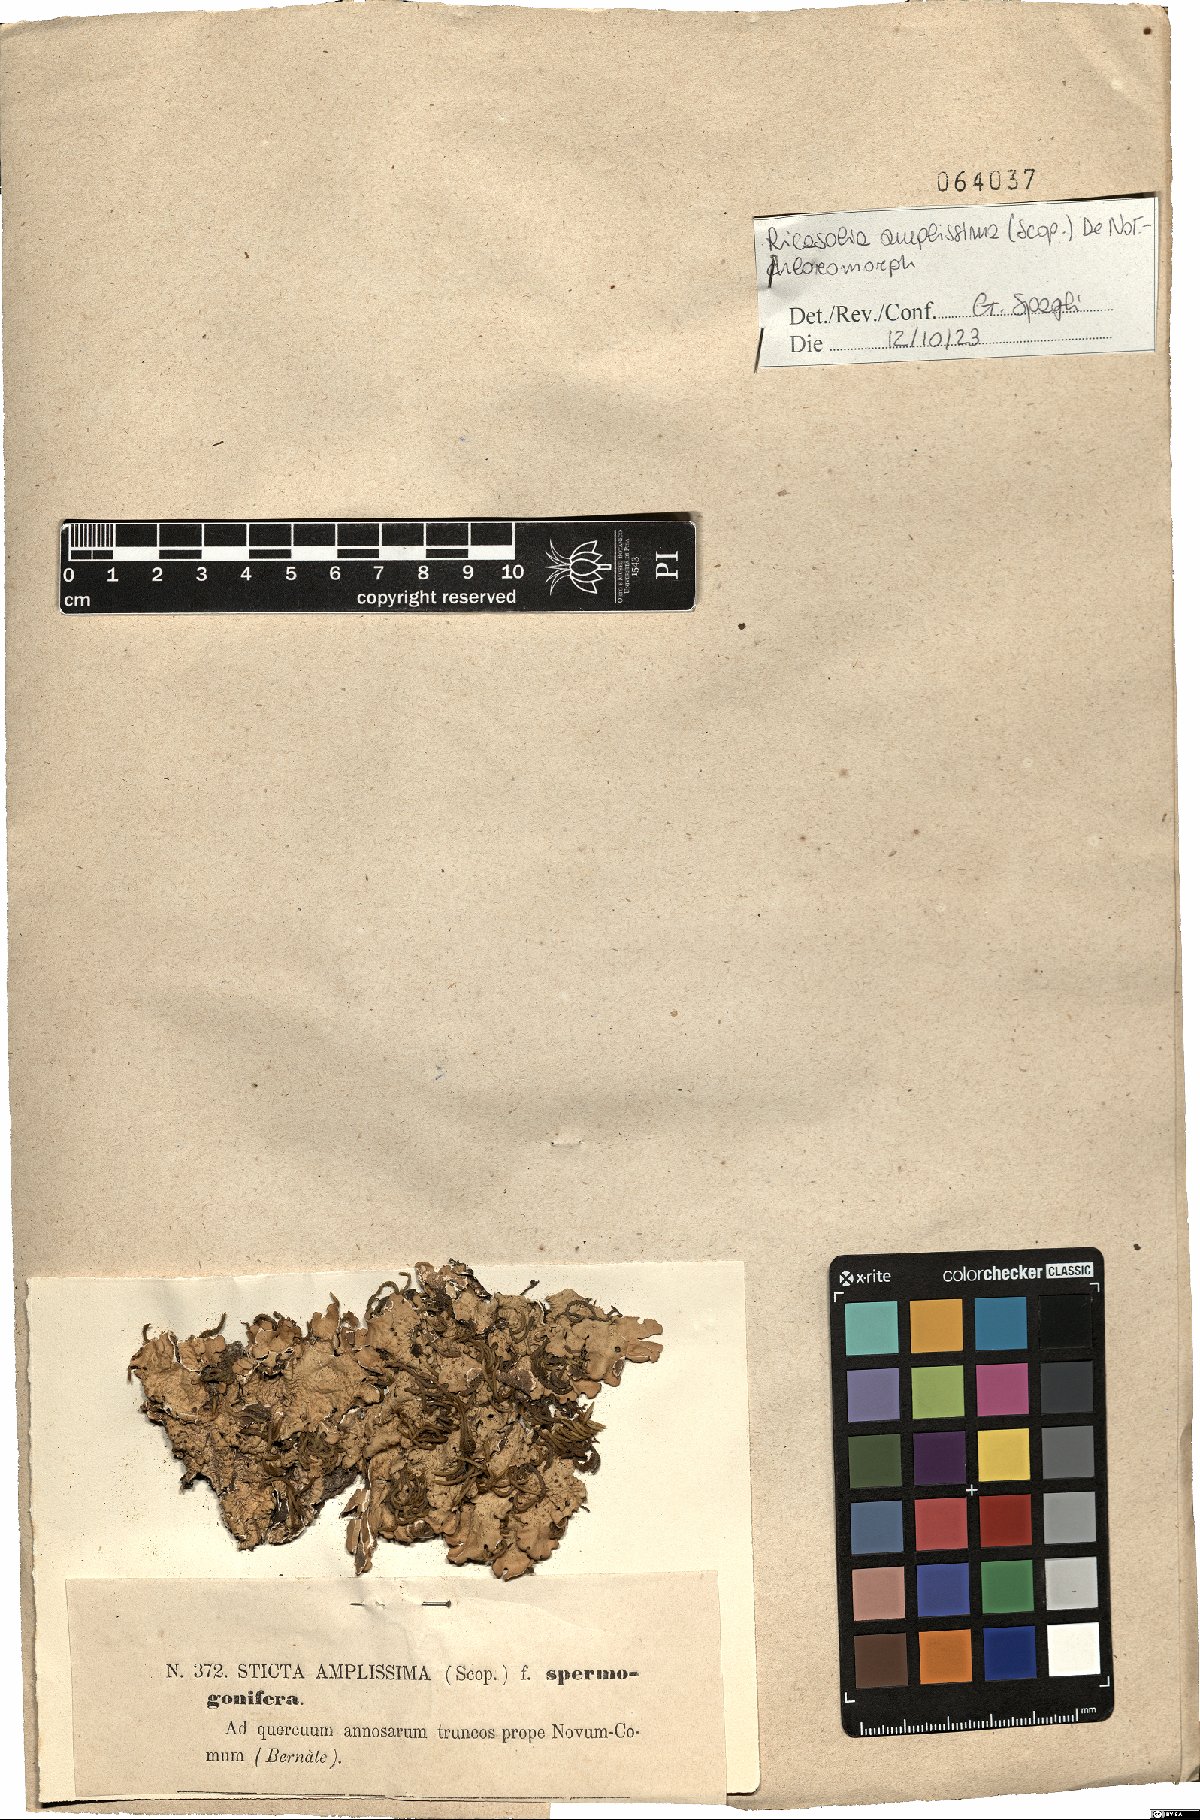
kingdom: Fungi
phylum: Ascomycota
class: Lecanoromycetes
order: Peltigerales
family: Lobariaceae
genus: Ricasolia
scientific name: Ricasolia amplissima
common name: Giant candlewax lichen
